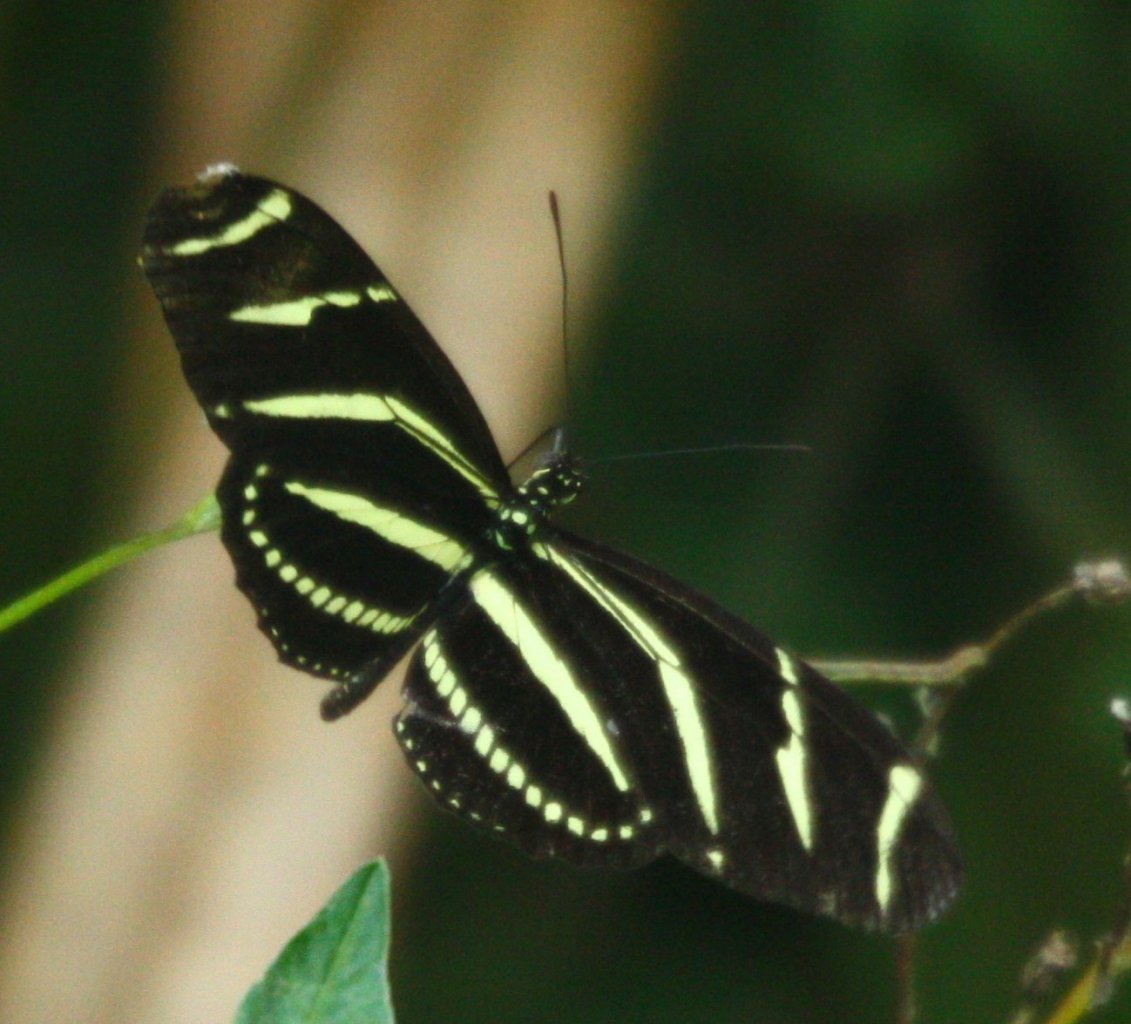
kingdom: Animalia
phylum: Arthropoda
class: Insecta
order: Lepidoptera
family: Nymphalidae
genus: Heliconius
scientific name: Heliconius charithonia
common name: Zebra Longwing
